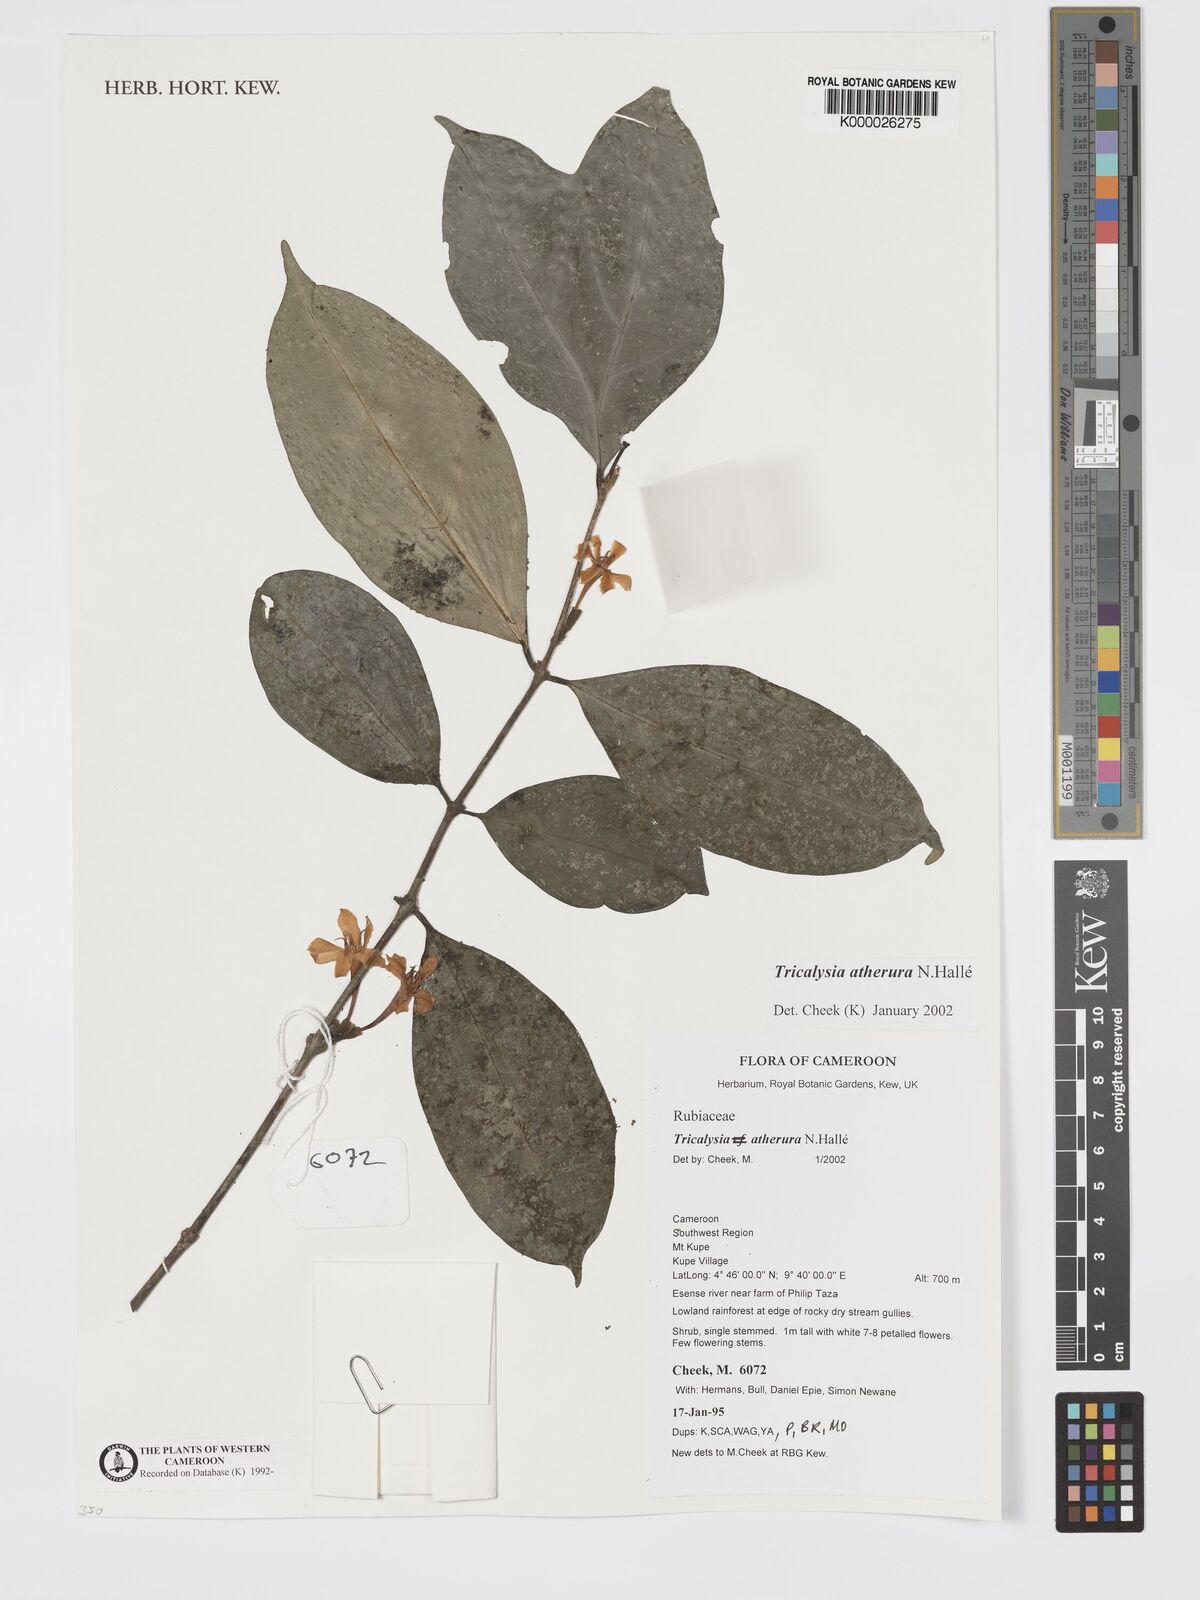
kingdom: Plantae
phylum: Tracheophyta
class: Magnoliopsida
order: Gentianales
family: Rubiaceae
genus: Tricalysia
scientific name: Tricalysia
